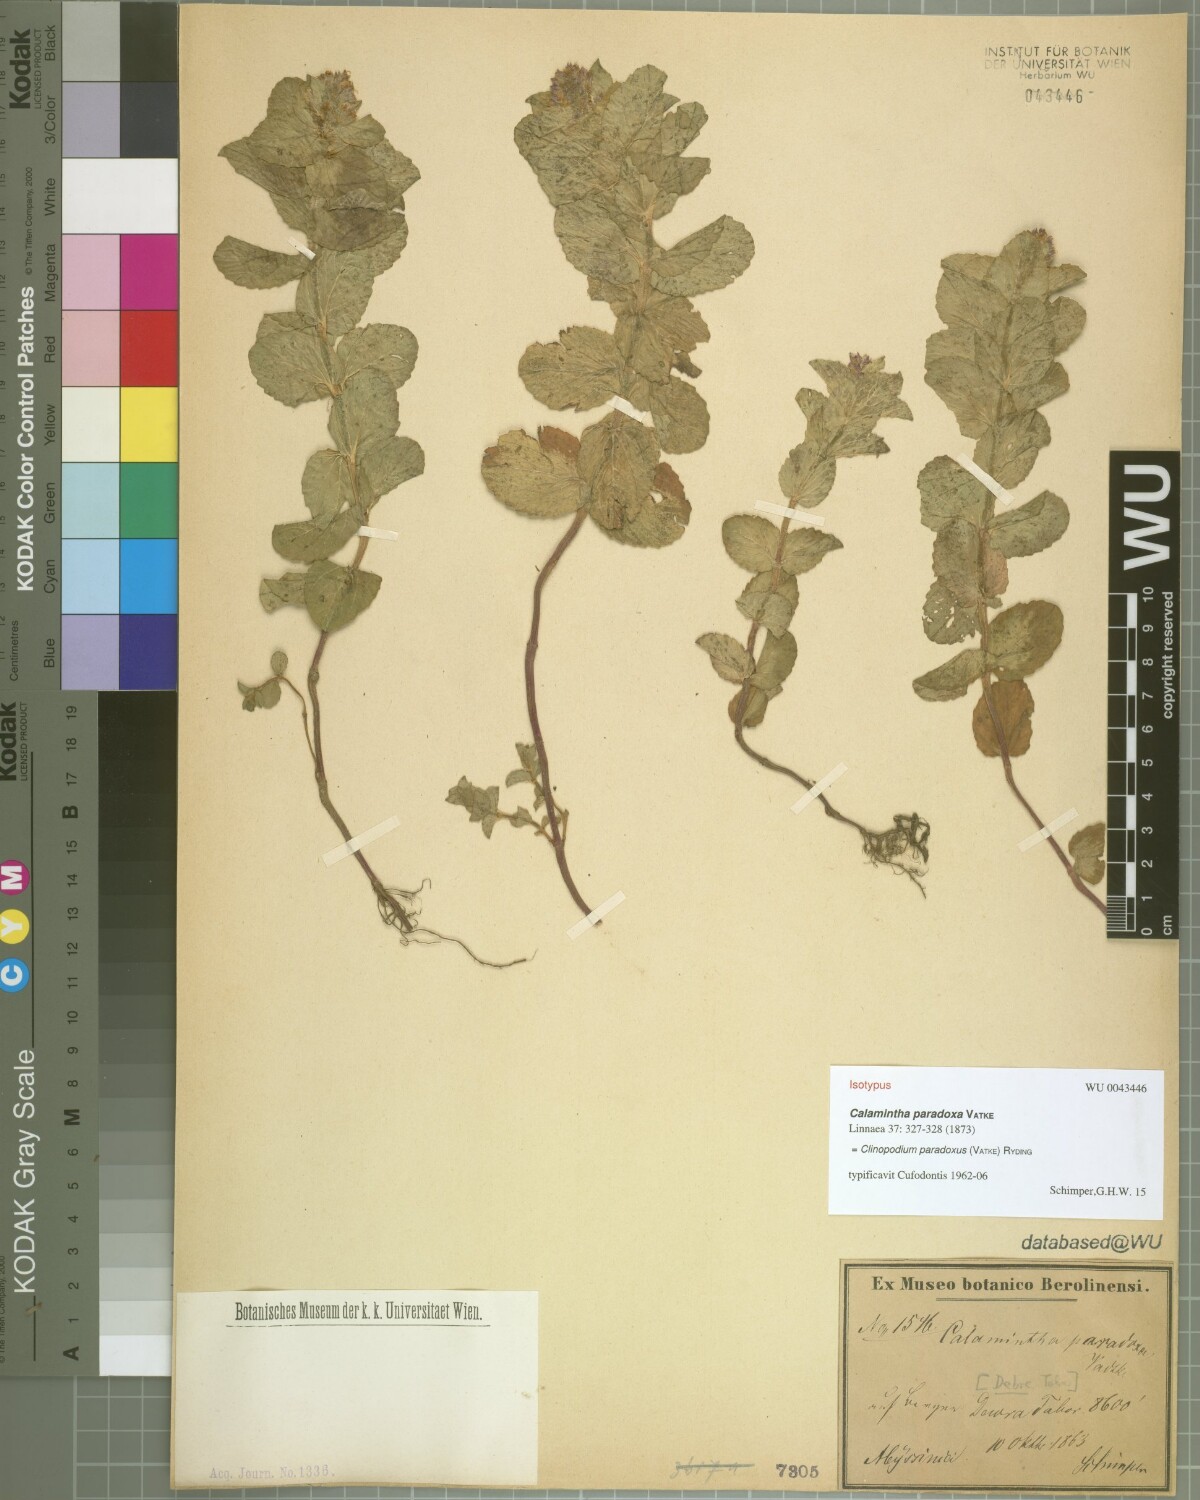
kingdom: Plantae
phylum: Tracheophyta
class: Magnoliopsida
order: Lamiales
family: Lamiaceae
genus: Clinopodium
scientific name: Clinopodium paradoxum
